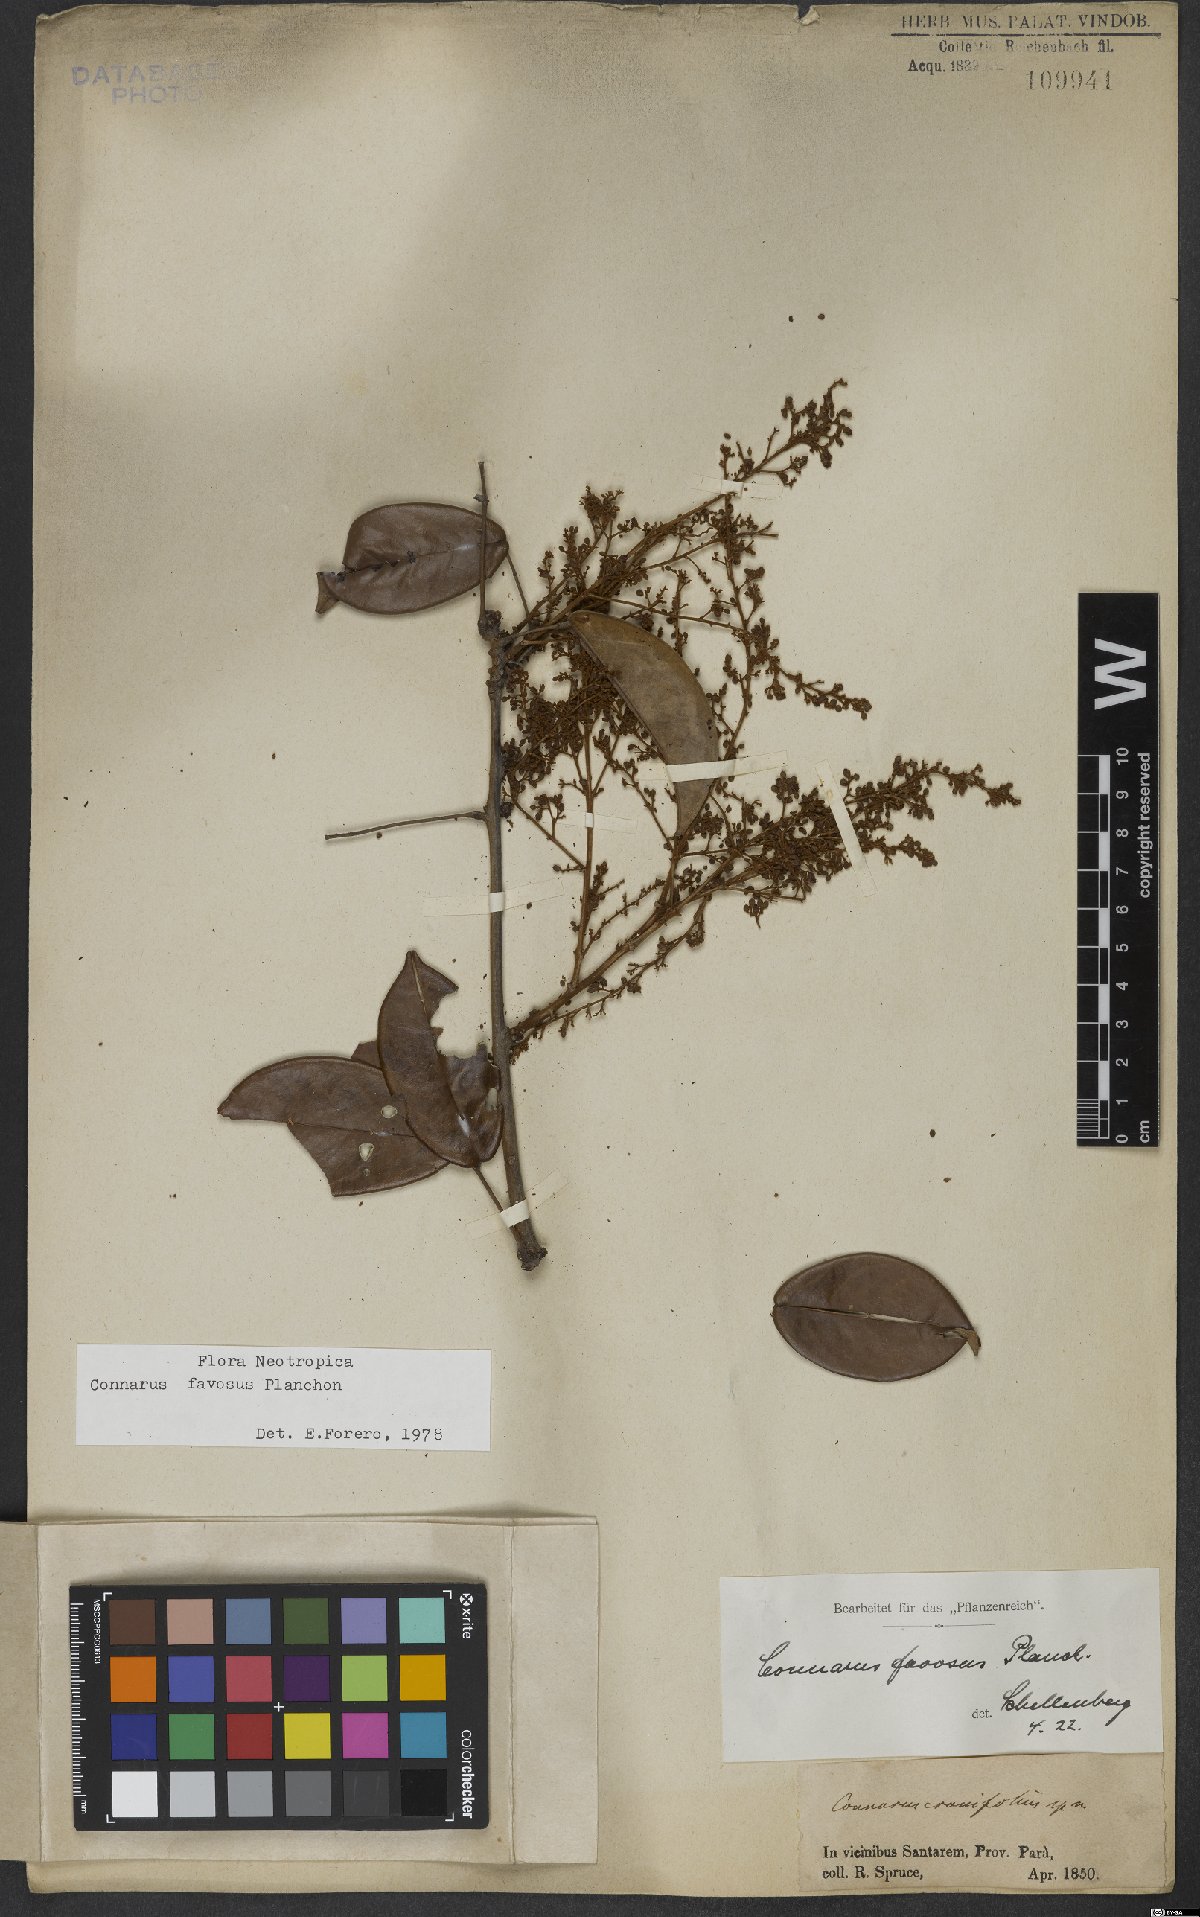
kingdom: Plantae
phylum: Tracheophyta
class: Magnoliopsida
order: Oxalidales
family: Connaraceae
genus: Connarus
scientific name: Connarus favosus
